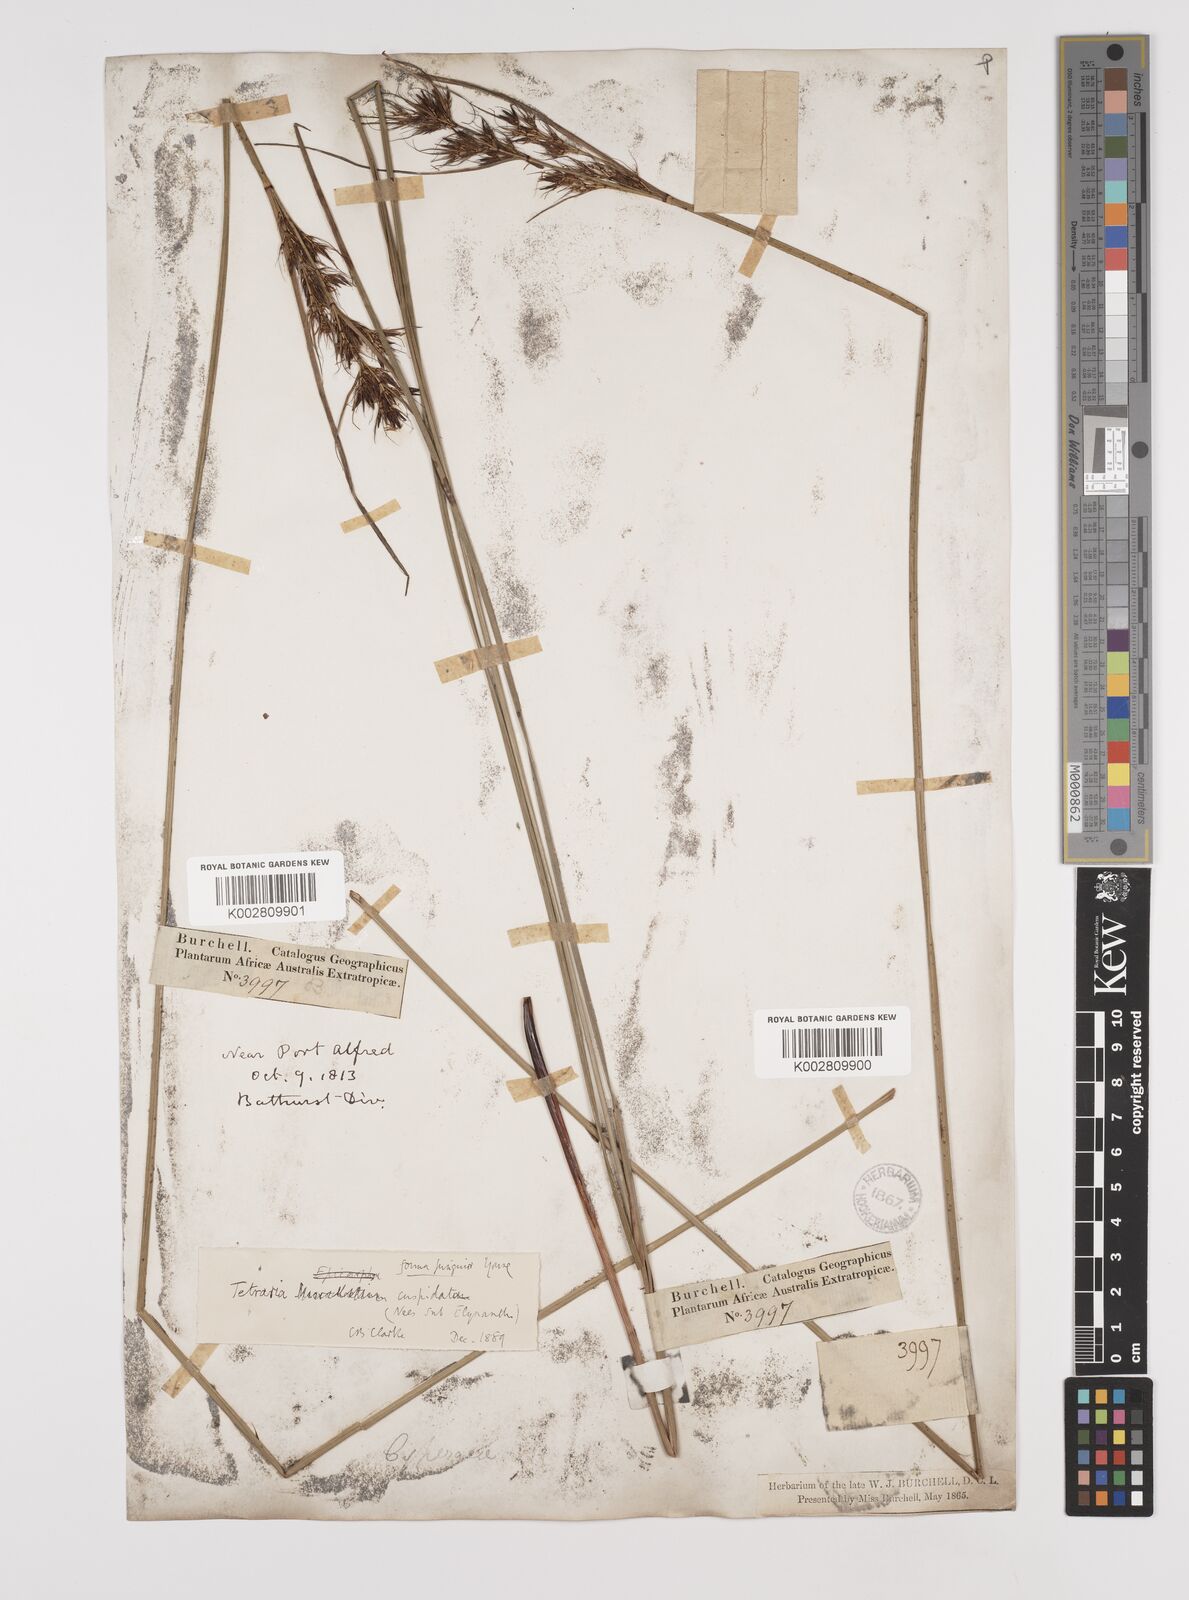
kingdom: Plantae
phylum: Tracheophyta
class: Liliopsida
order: Poales
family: Cyperaceae
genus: Schoenus
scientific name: Schoenus cuspidatus
